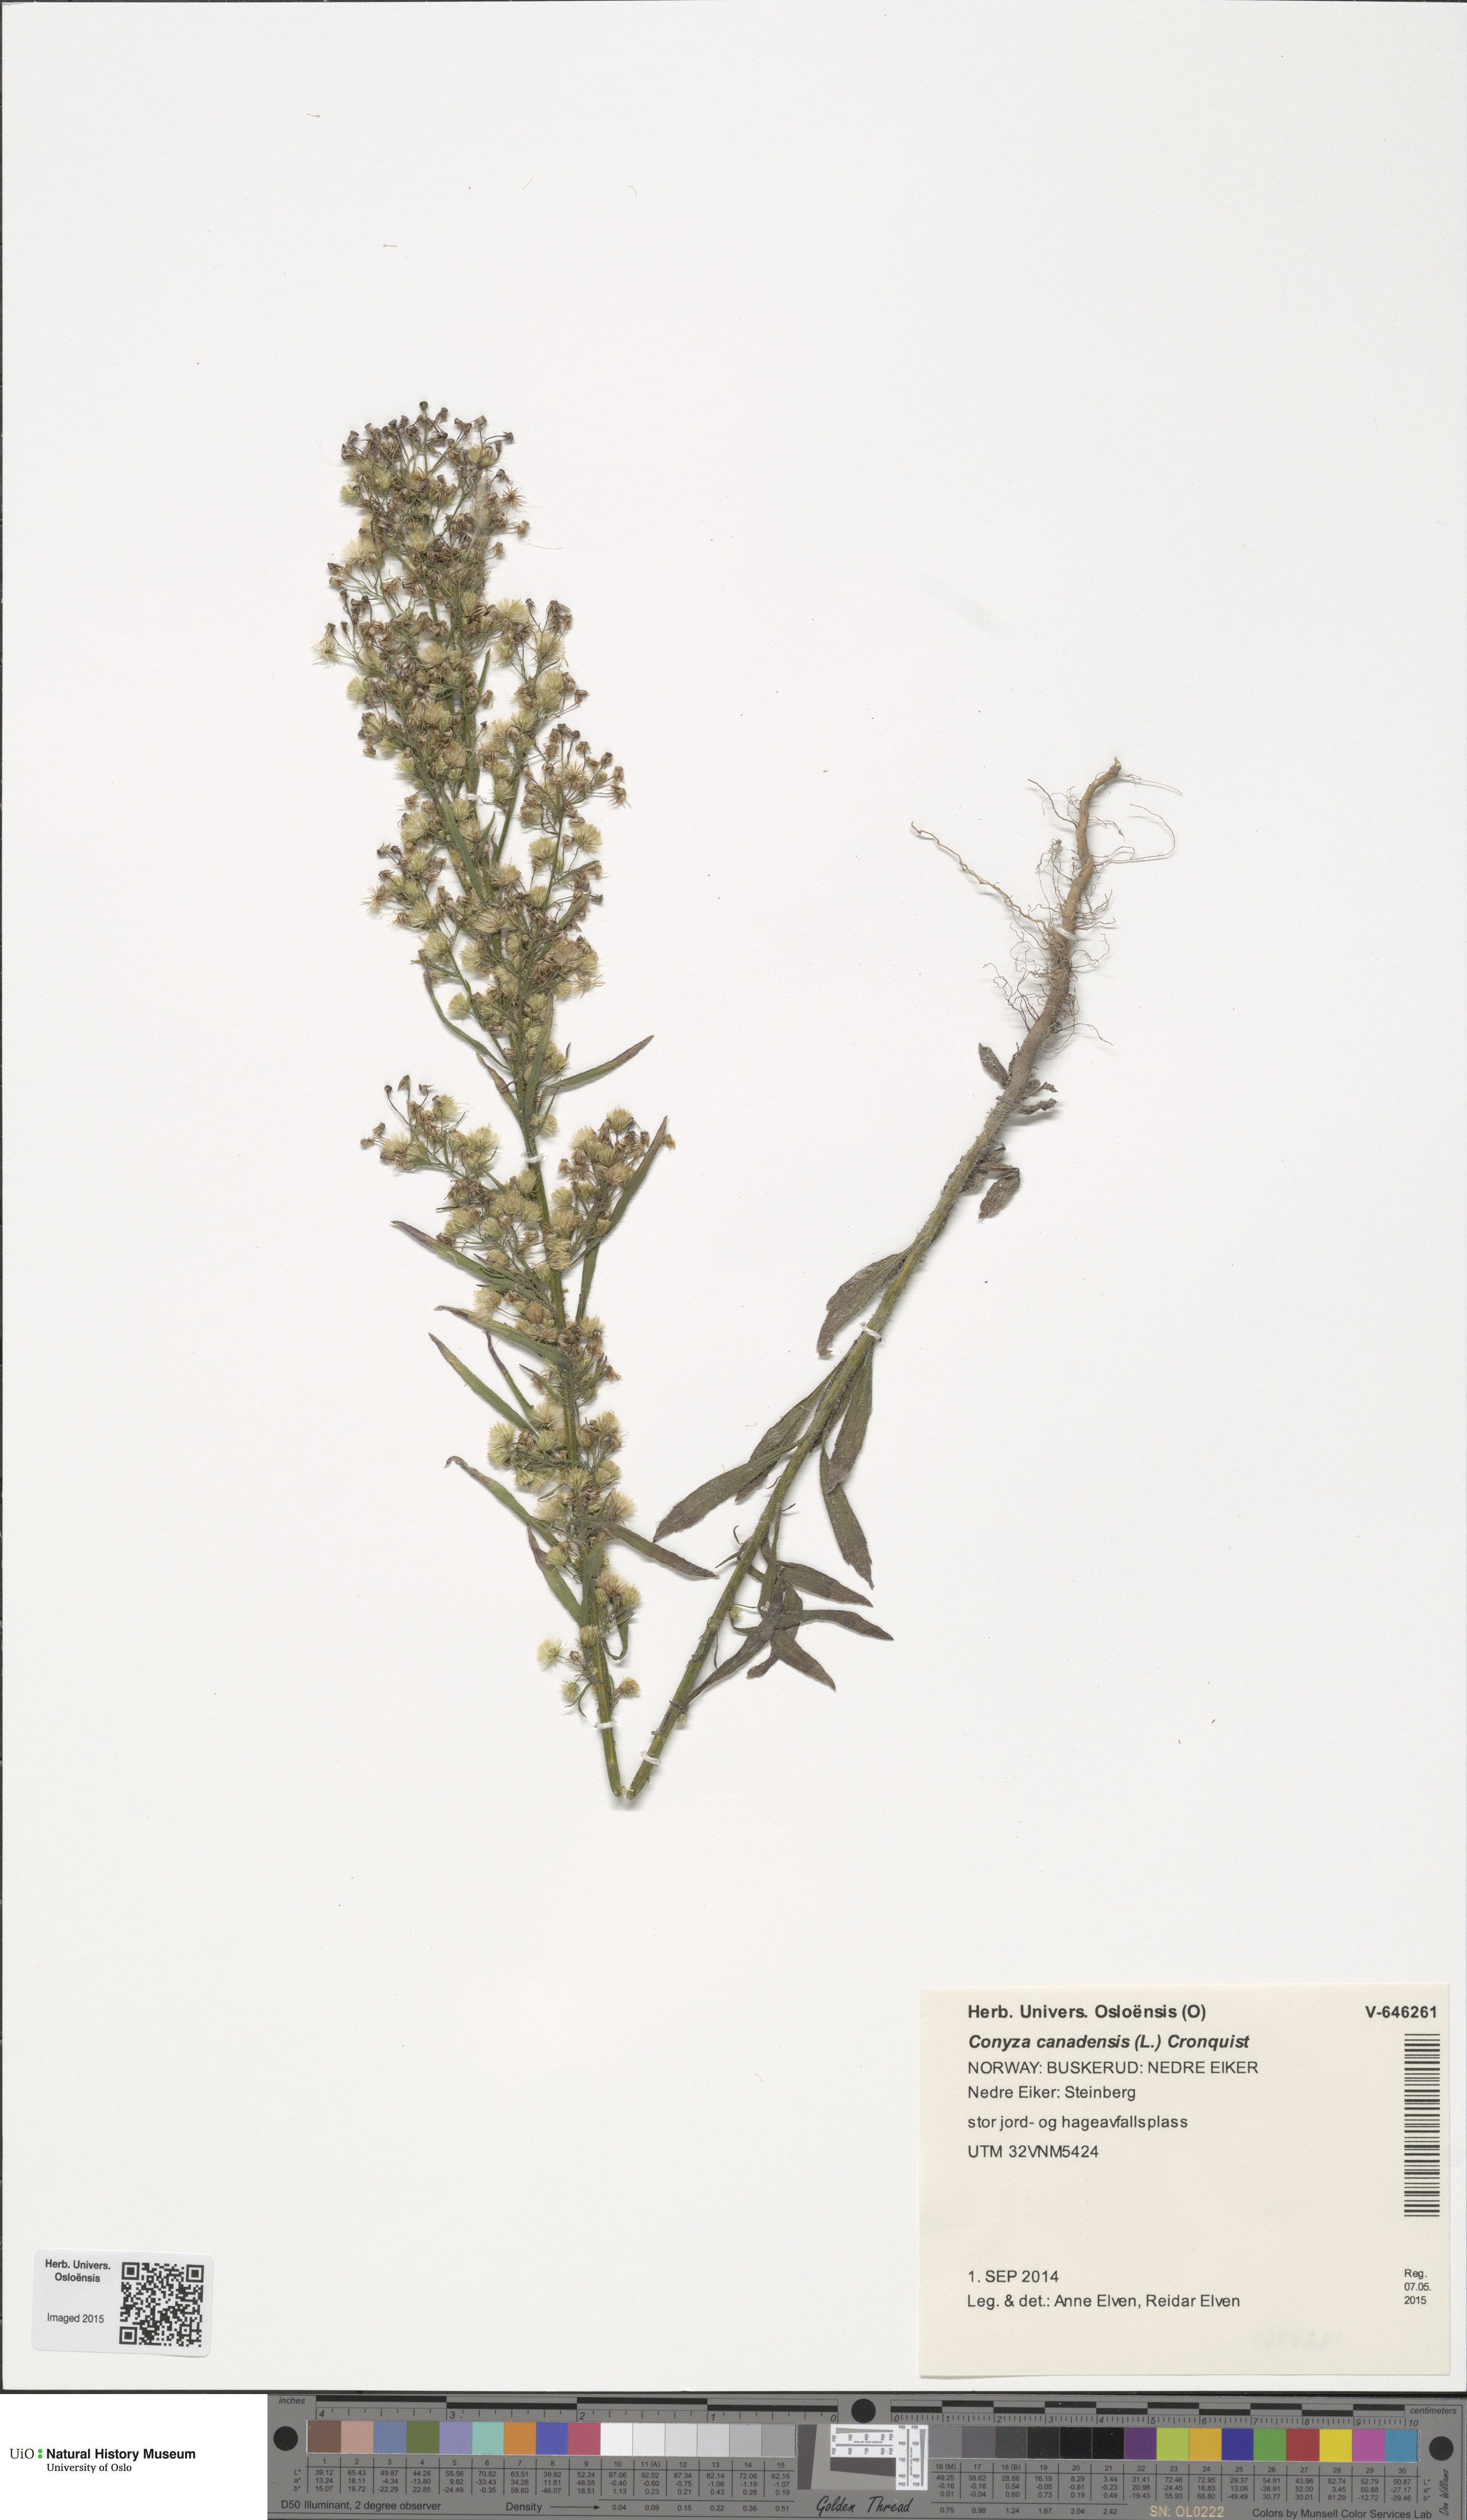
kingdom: Plantae
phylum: Tracheophyta
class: Magnoliopsida
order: Asterales
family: Asteraceae
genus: Erigeron
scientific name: Erigeron canadensis
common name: Canadian fleabane
